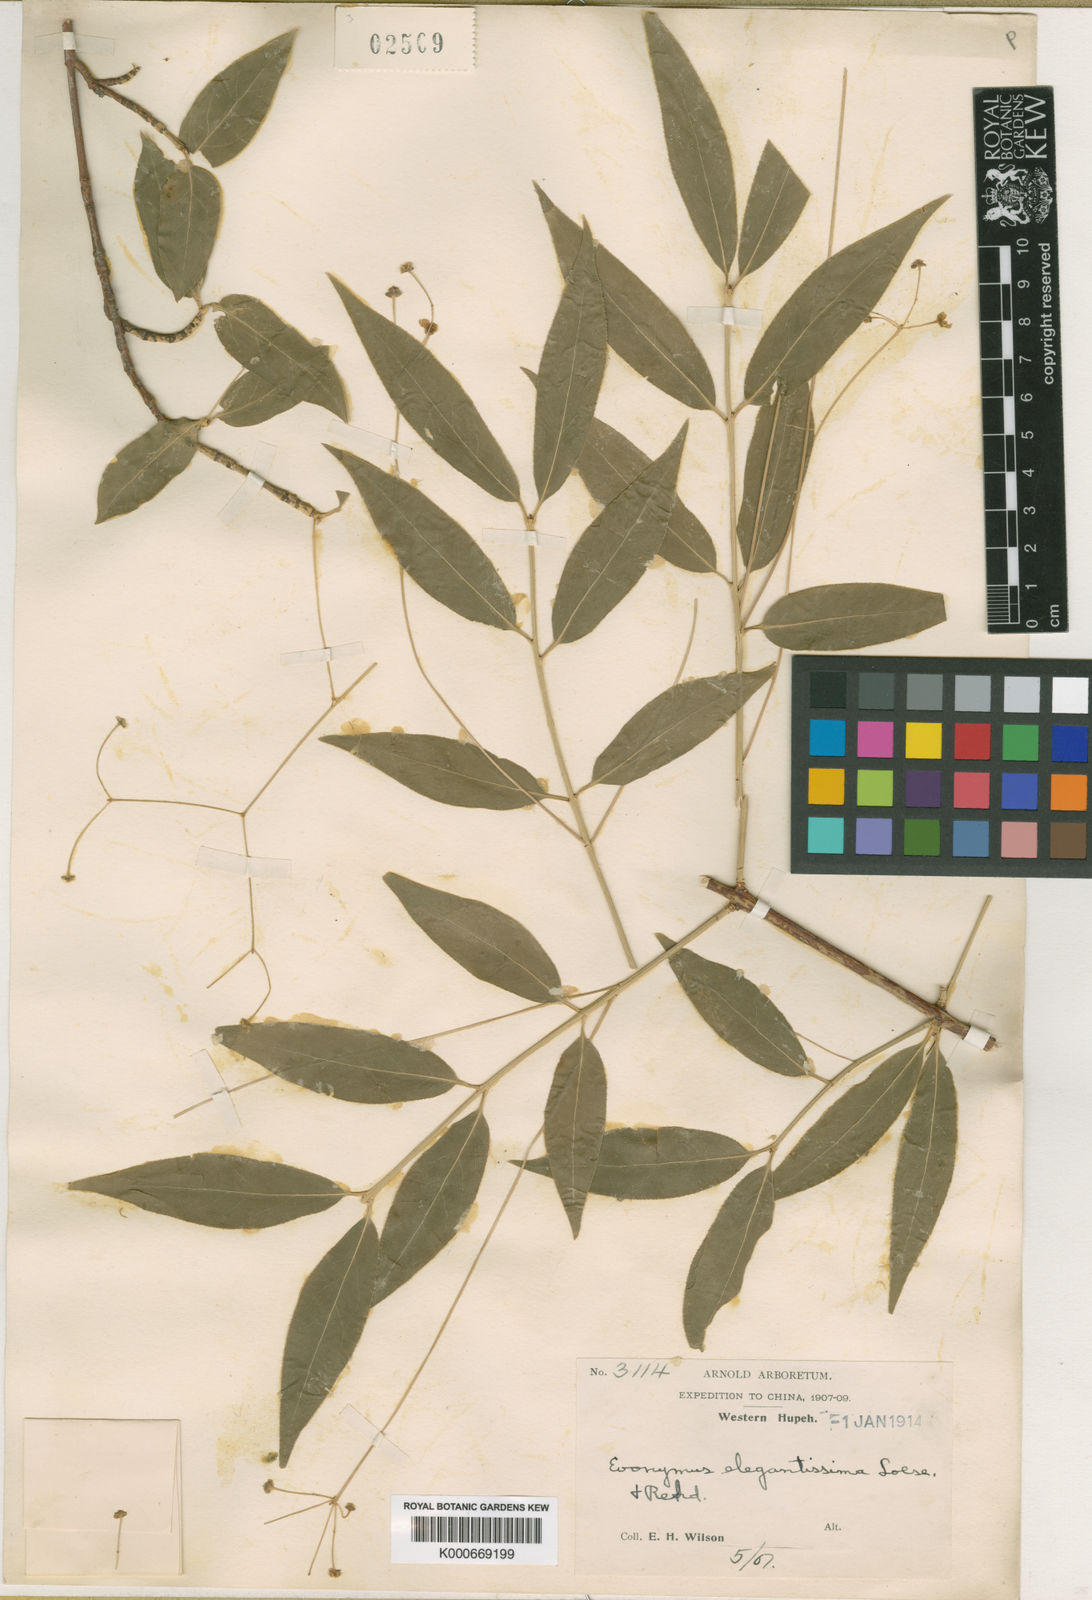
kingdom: Plantae
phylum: Tracheophyta
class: Magnoliopsida
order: Celastrales
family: Celastraceae
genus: Euonymus
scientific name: Euonymus clivicolus
